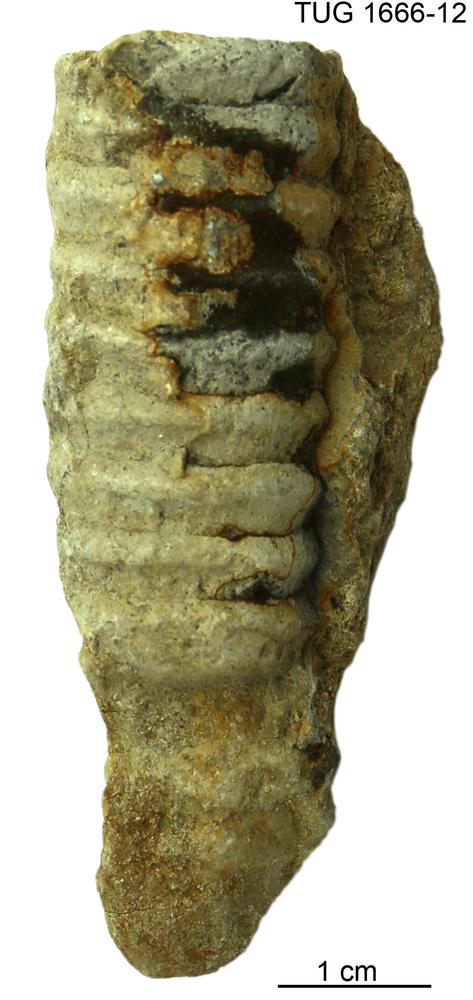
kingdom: Animalia
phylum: Mollusca
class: Cephalopoda
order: Orthocerida
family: Dawsonoceratidae
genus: Palaeodawsonocerina
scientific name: Palaeodawsonocerina Spyroceras senckenbergi
